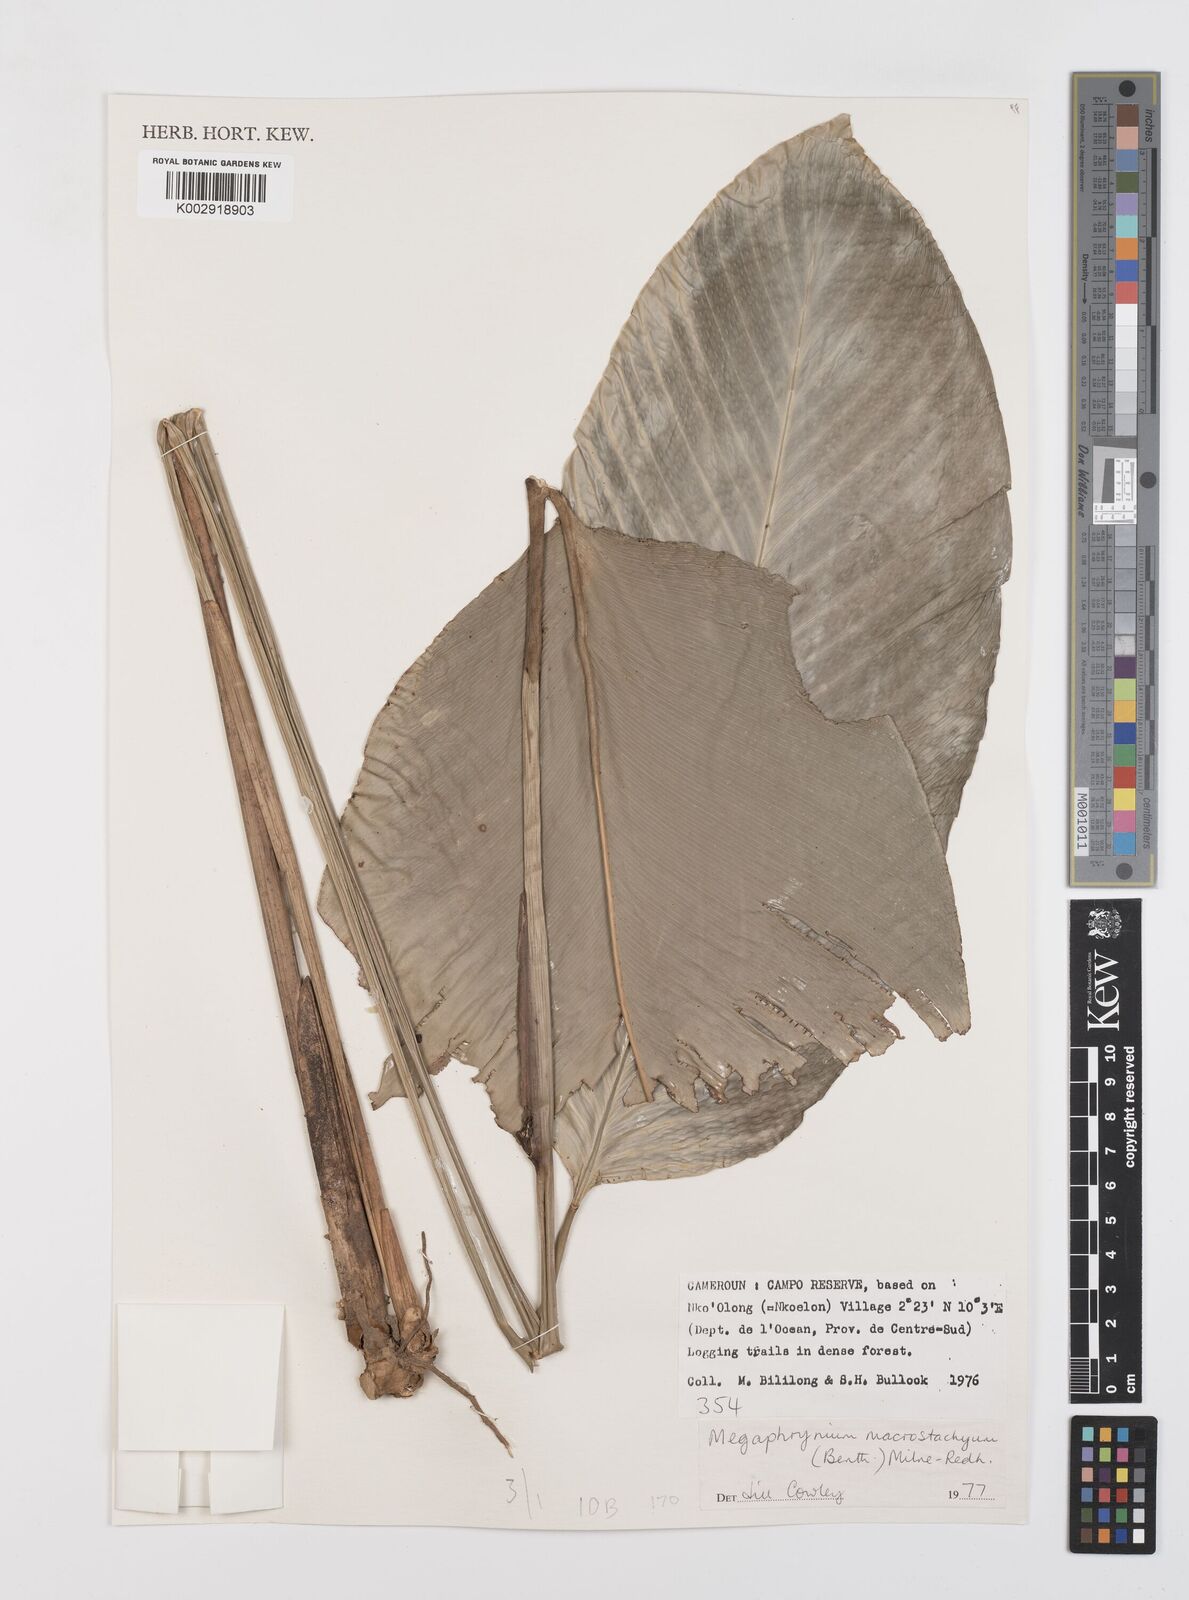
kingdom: Plantae
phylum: Tracheophyta
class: Liliopsida
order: Zingiberales
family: Marantaceae
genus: Megaphrynium
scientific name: Megaphrynium macrostachyum
